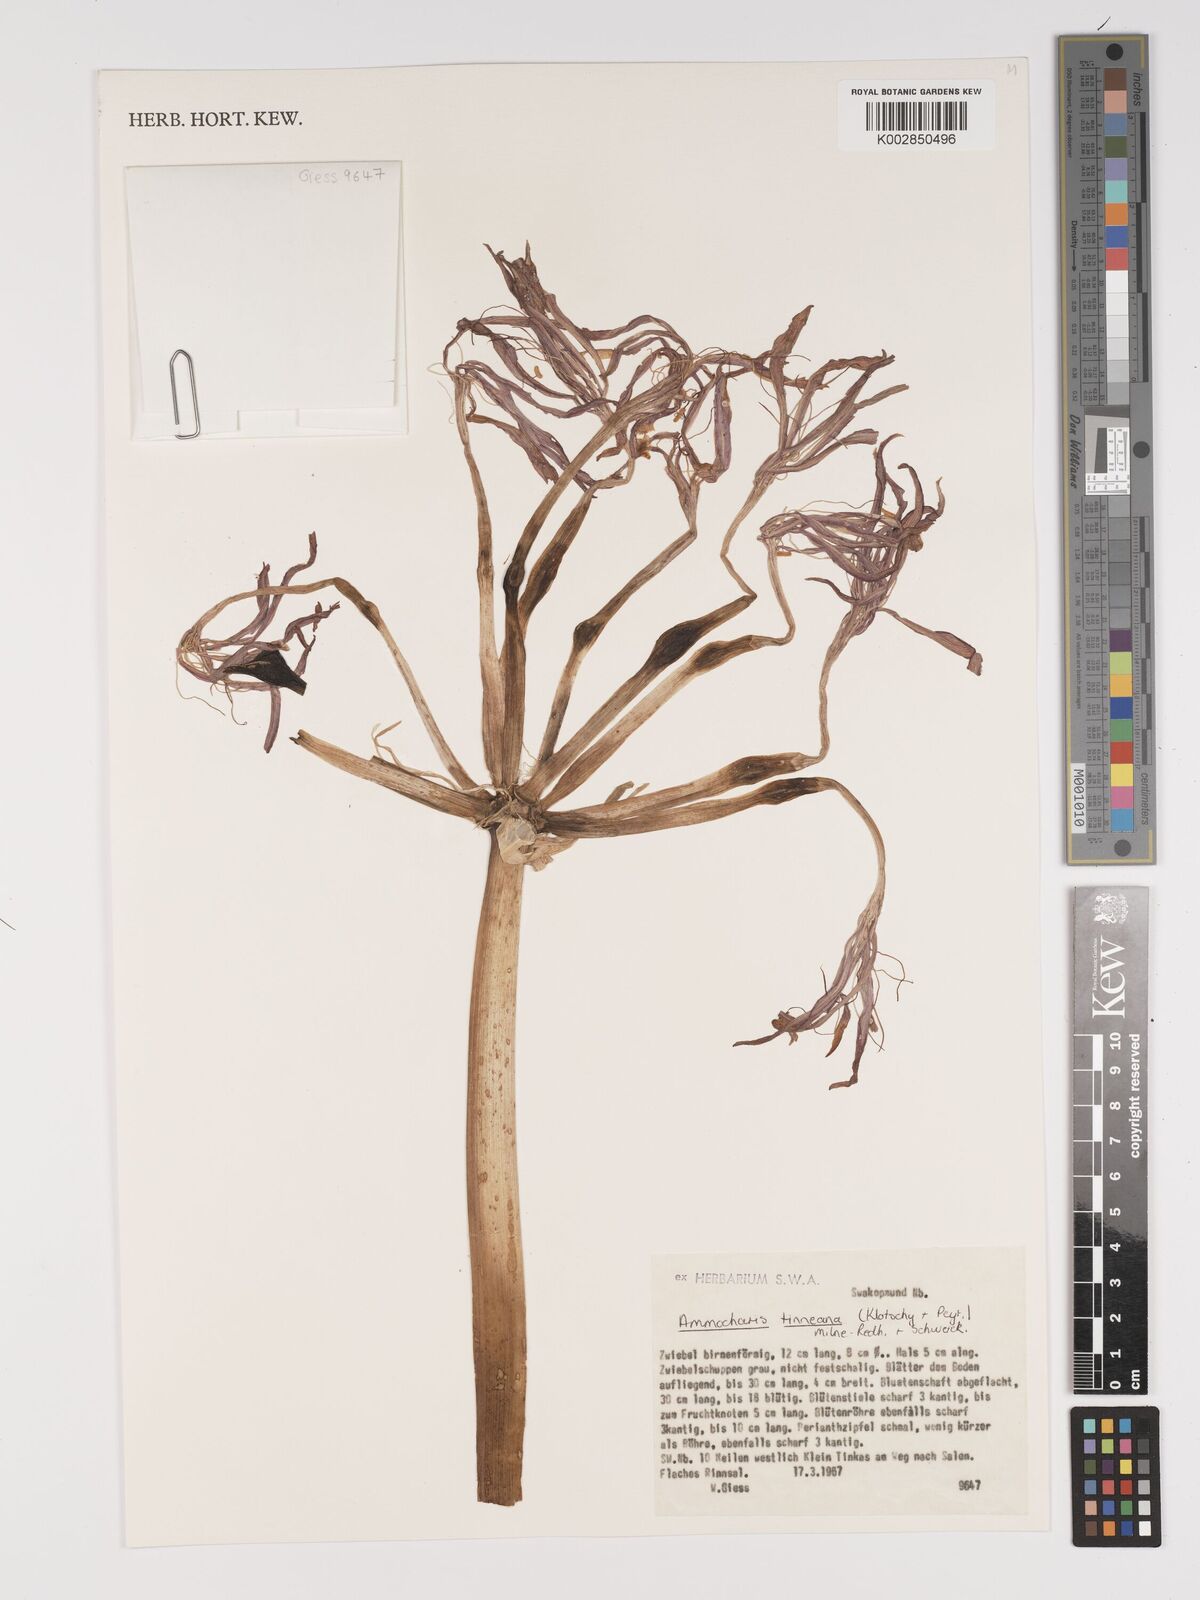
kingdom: Plantae
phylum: Tracheophyta
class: Liliopsida
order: Asparagales
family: Amaryllidaceae
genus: Ammocharis
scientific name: Ammocharis tinneana
